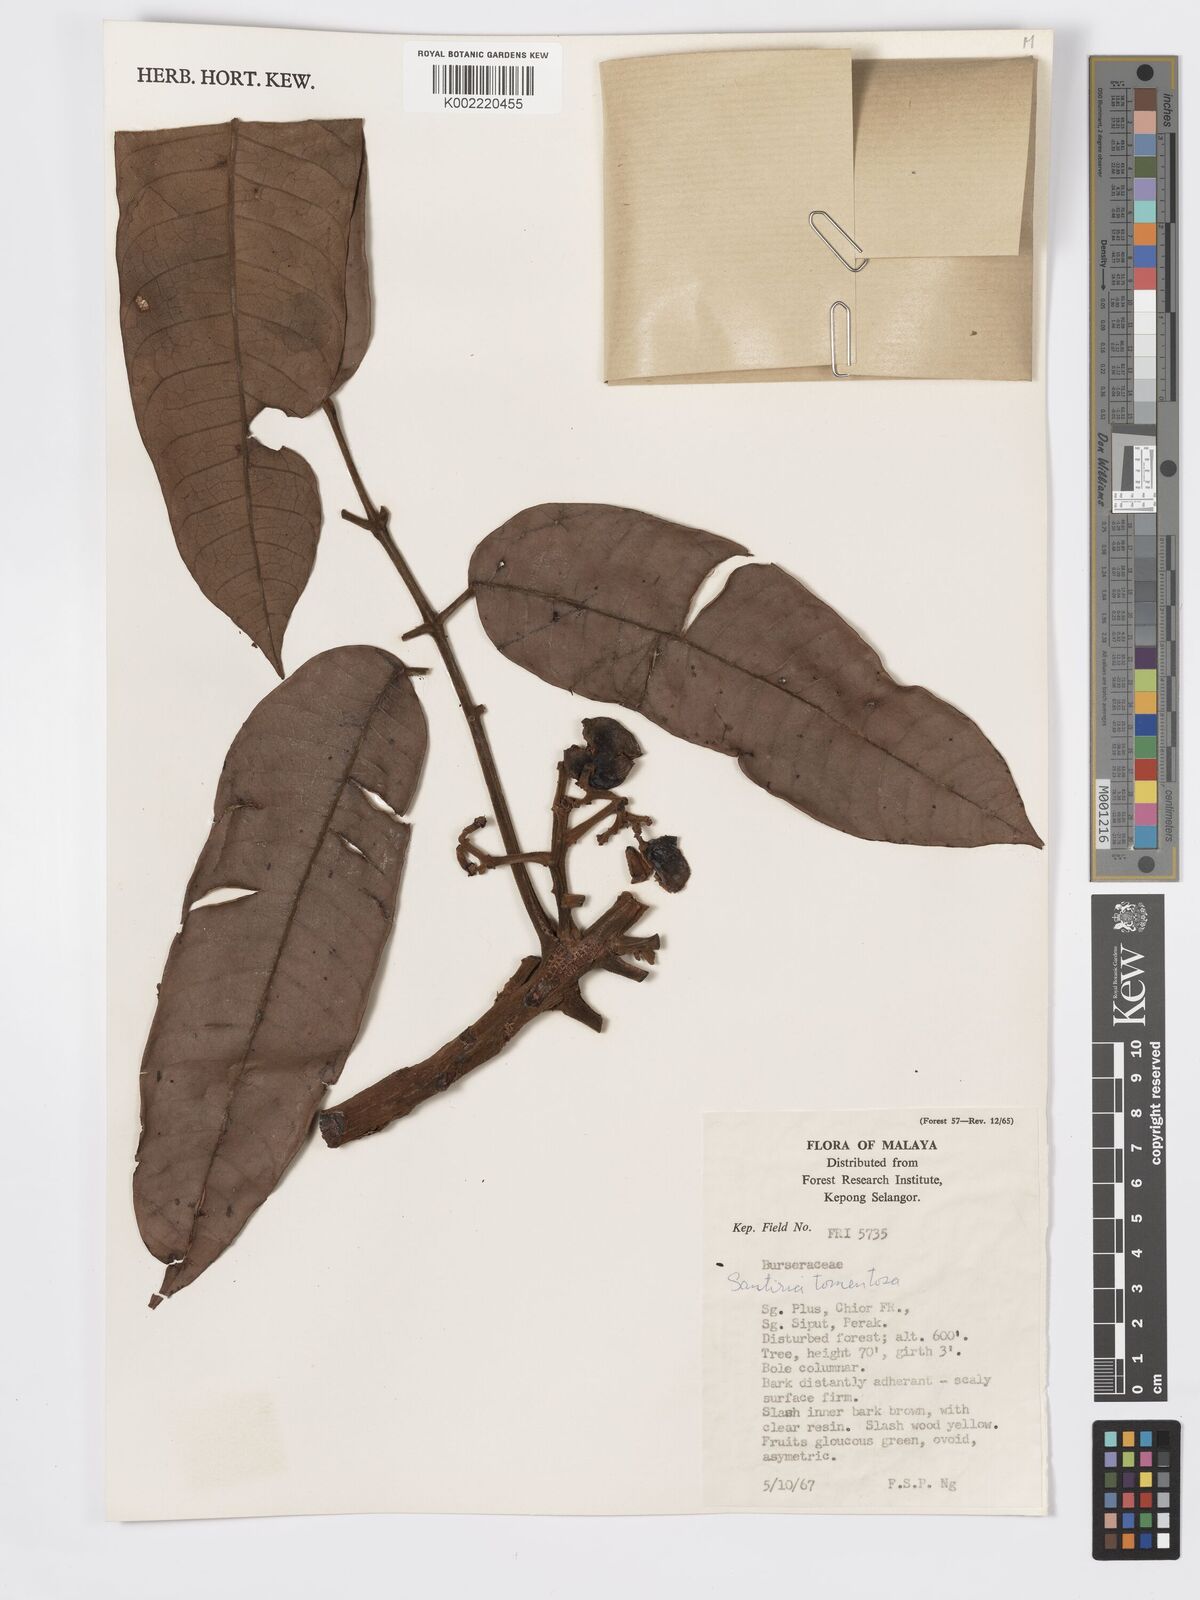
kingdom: Plantae
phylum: Tracheophyta
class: Magnoliopsida
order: Sapindales
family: Burseraceae
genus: Santiria
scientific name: Santiria tomentosa
